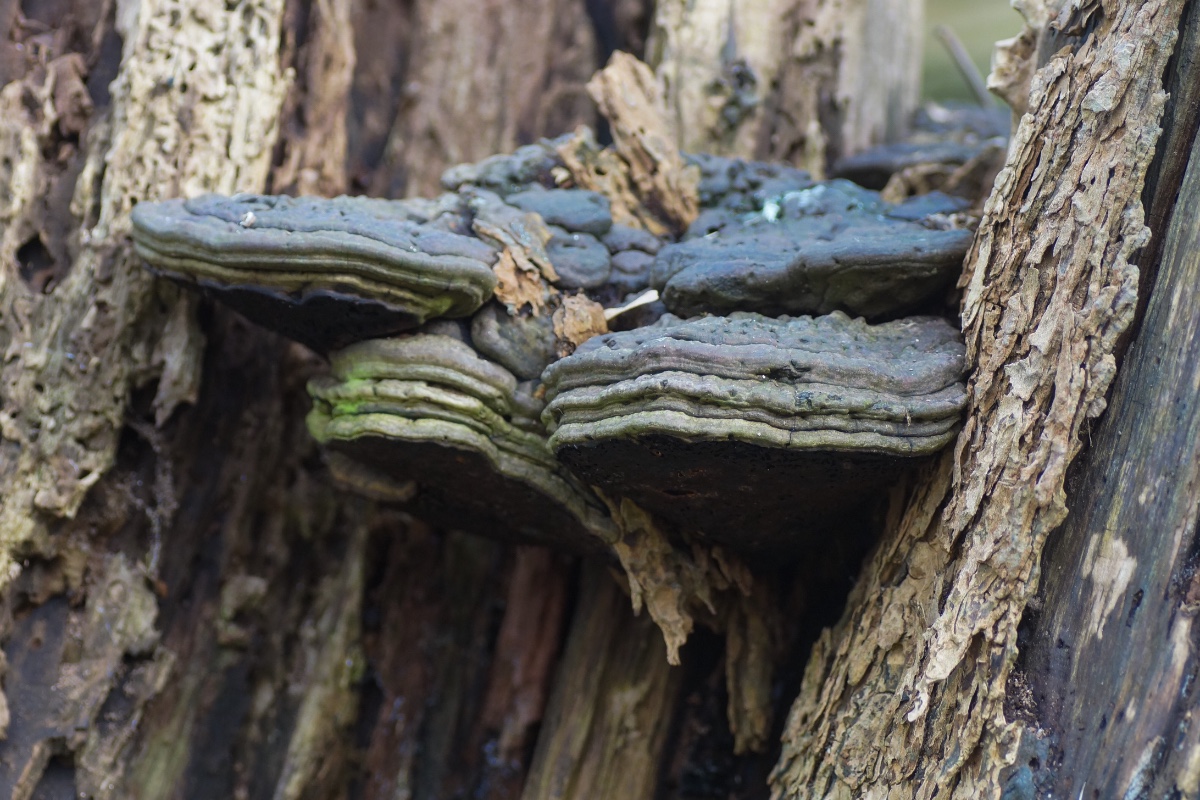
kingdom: Fungi
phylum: Basidiomycota
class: Agaricomycetes
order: Polyporales
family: Polyporaceae
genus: Ganoderma
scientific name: Ganoderma applanatum
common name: flad lakporesvamp
